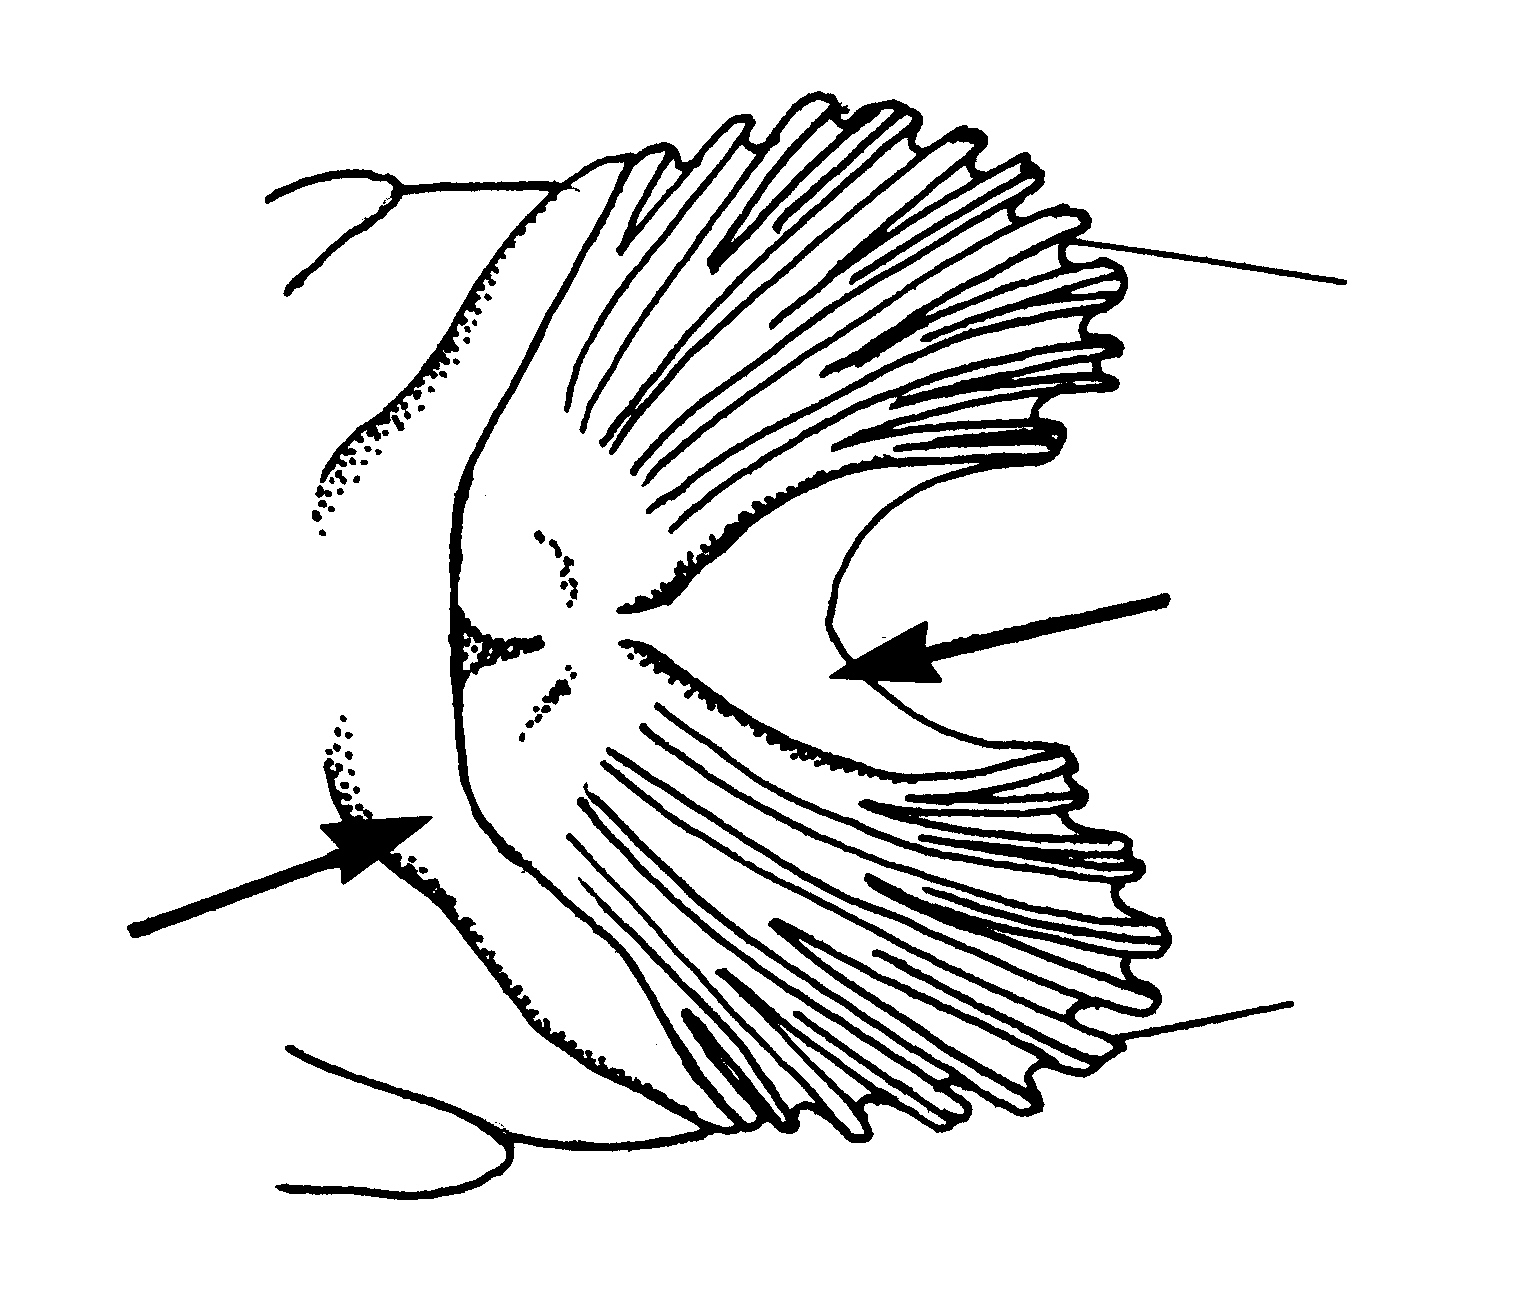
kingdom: Animalia
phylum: Chordata
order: Perciformes
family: Gobiidae
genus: Periophthalmus
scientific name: Periophthalmus kalolo
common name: African mudhopper
